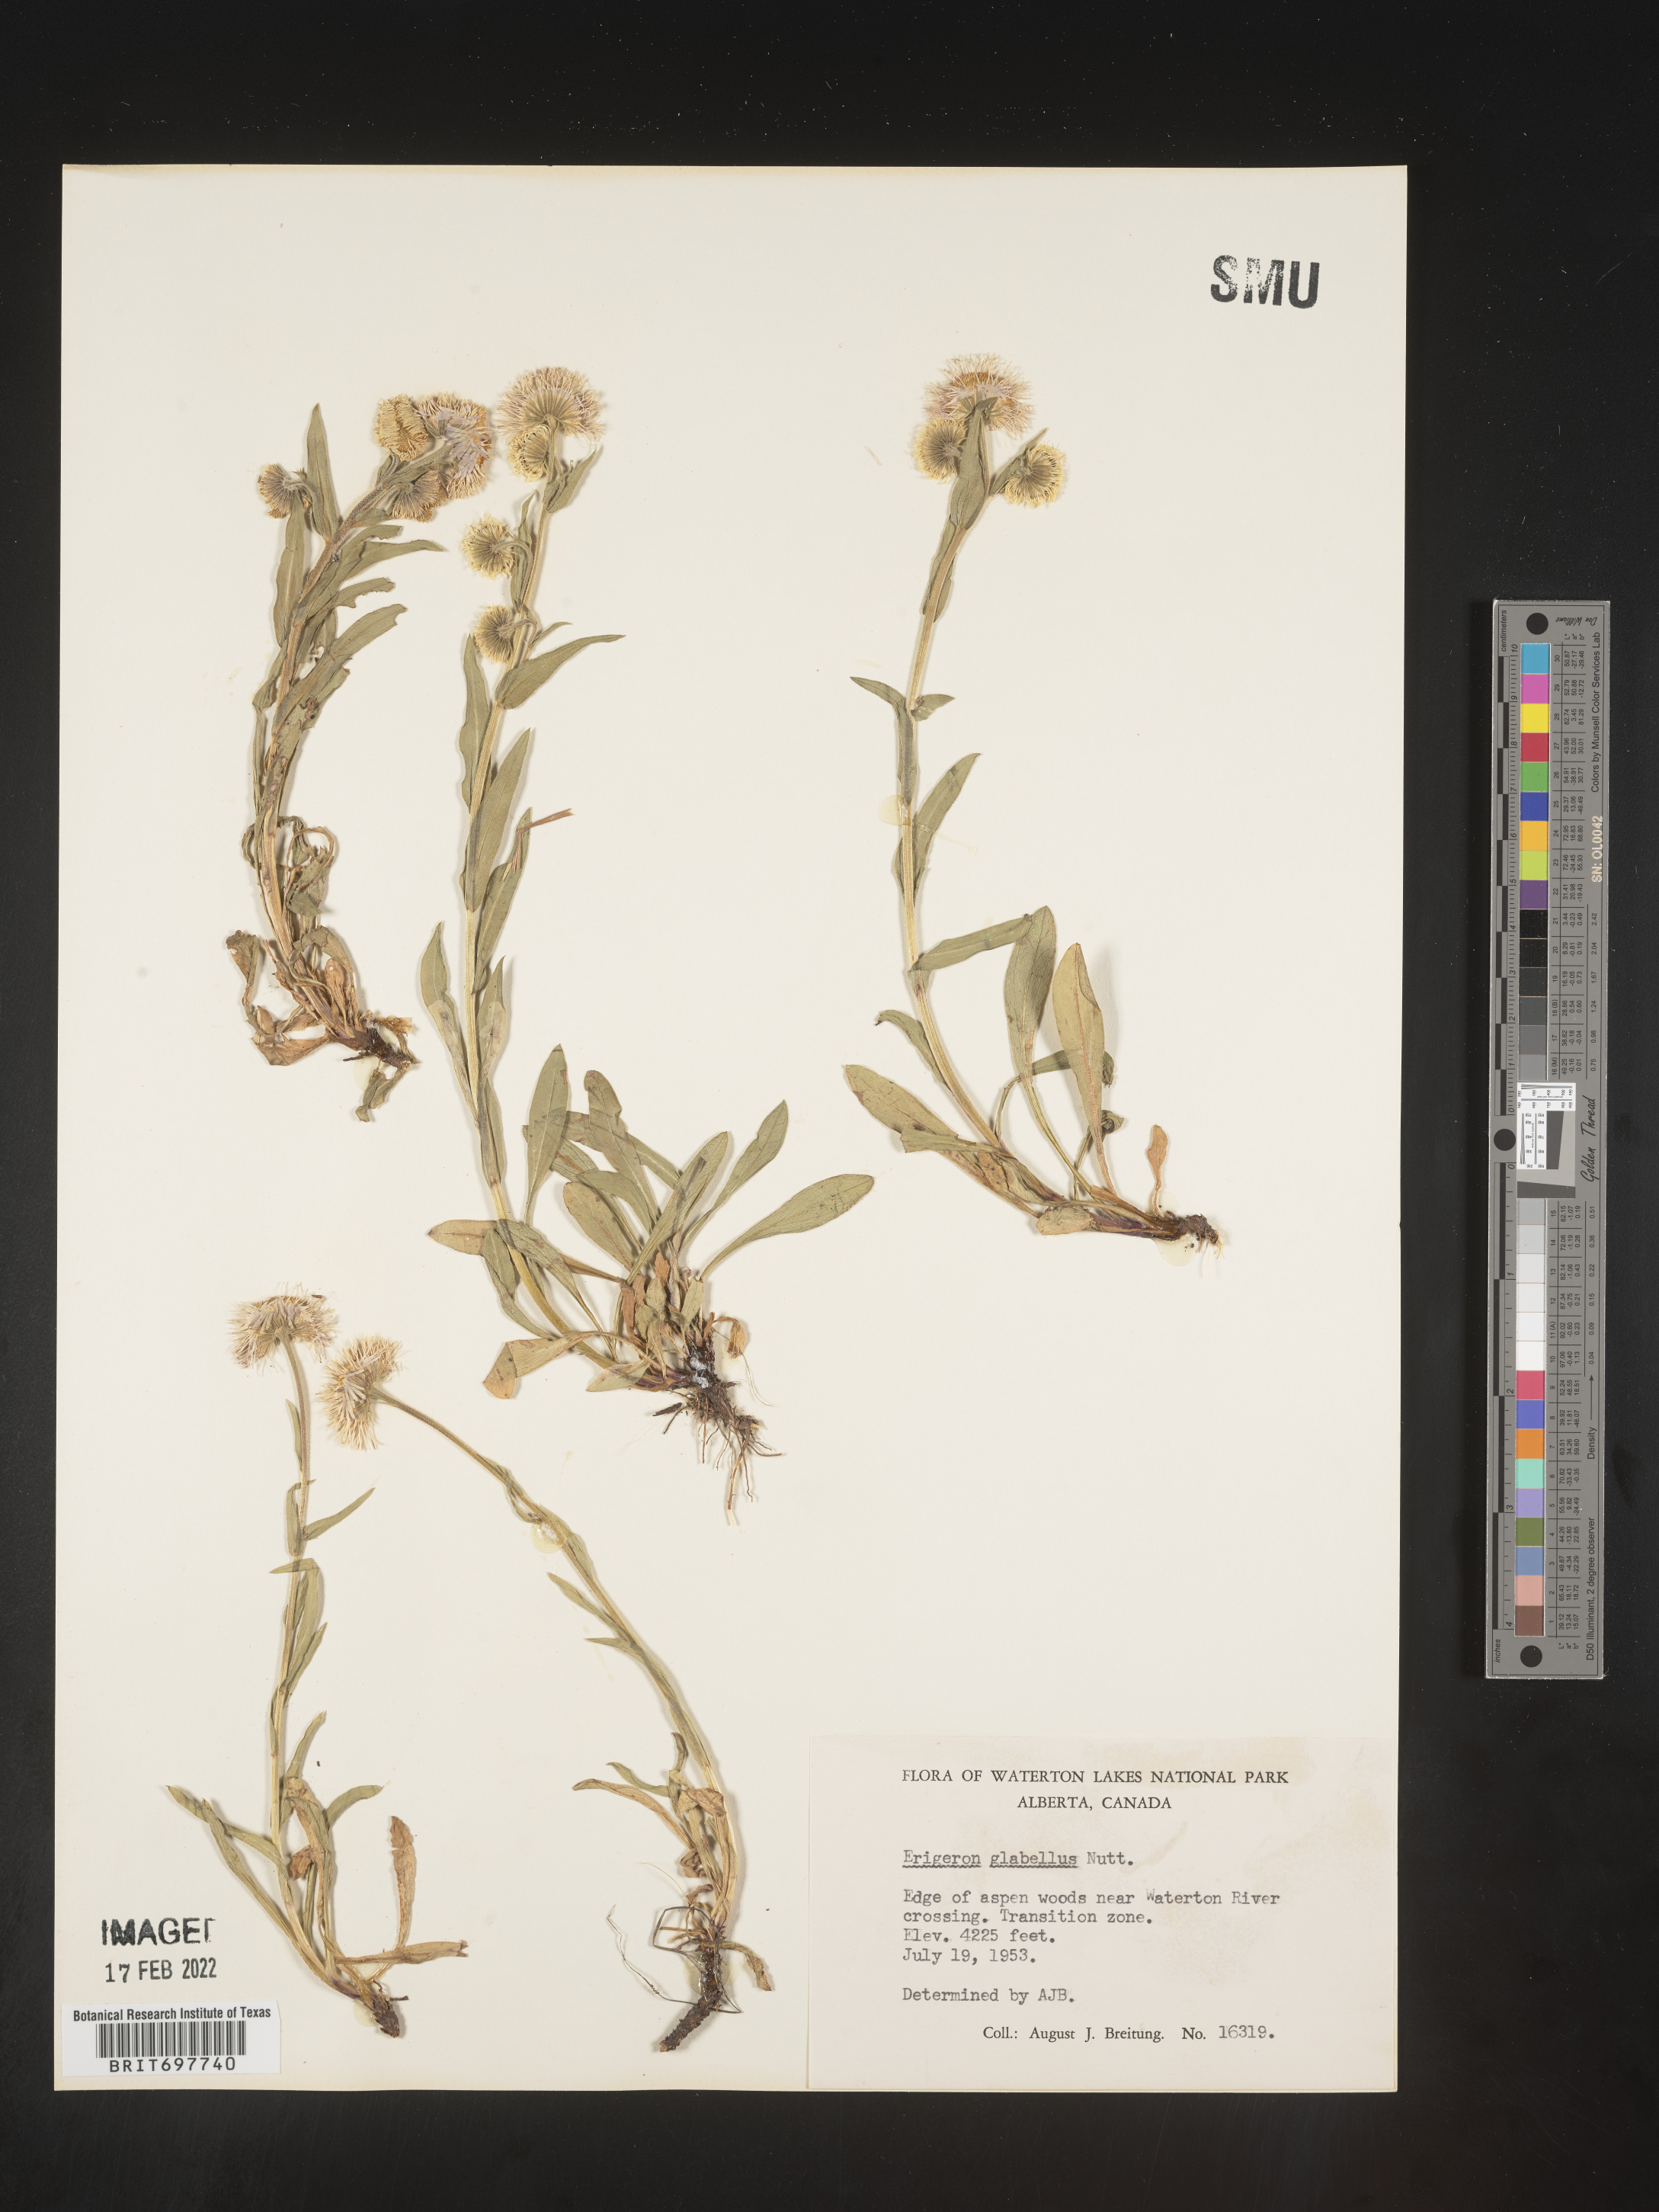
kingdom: Plantae
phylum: Tracheophyta
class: Magnoliopsida
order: Asterales
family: Asteraceae
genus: Erigeron
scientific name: Erigeron glabellus
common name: Smooth fleabane
